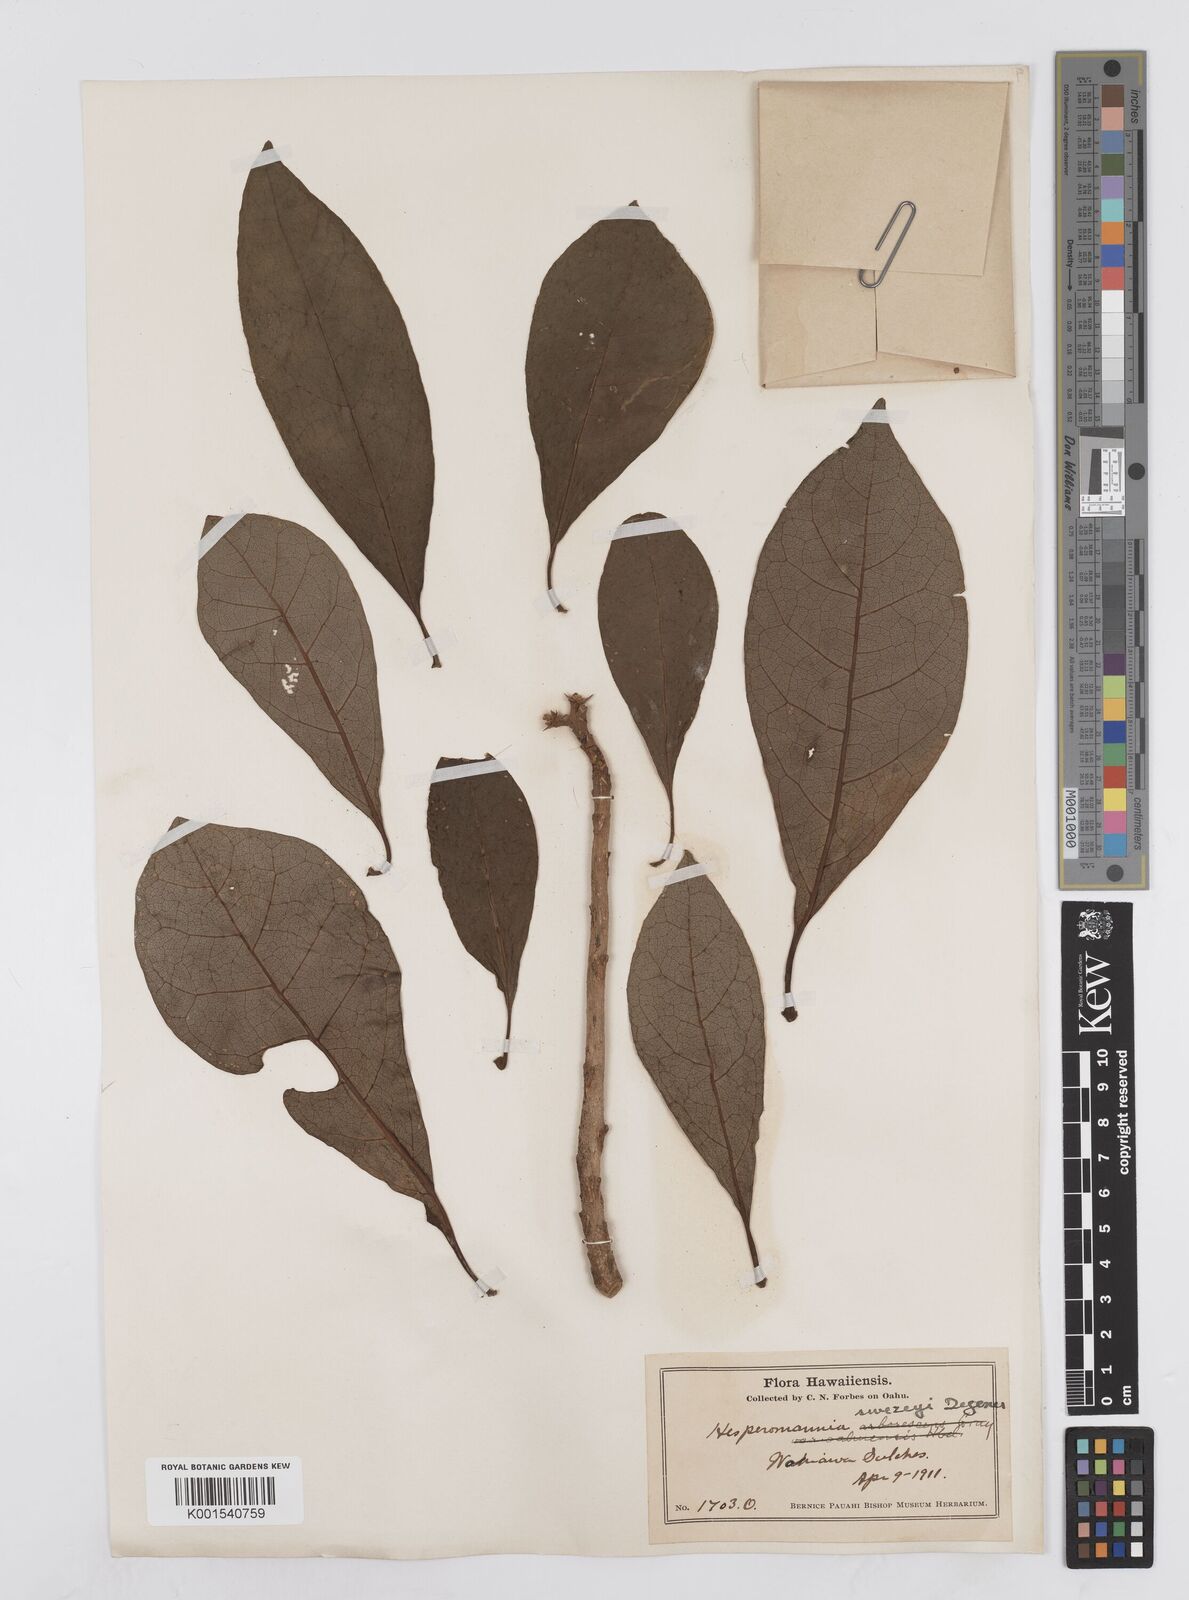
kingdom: Plantae
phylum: Tracheophyta
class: Magnoliopsida
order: Asterales
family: Asteraceae
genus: Hesperomannia
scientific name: Hesperomannia arborescens
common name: Lanai hesperomannia
